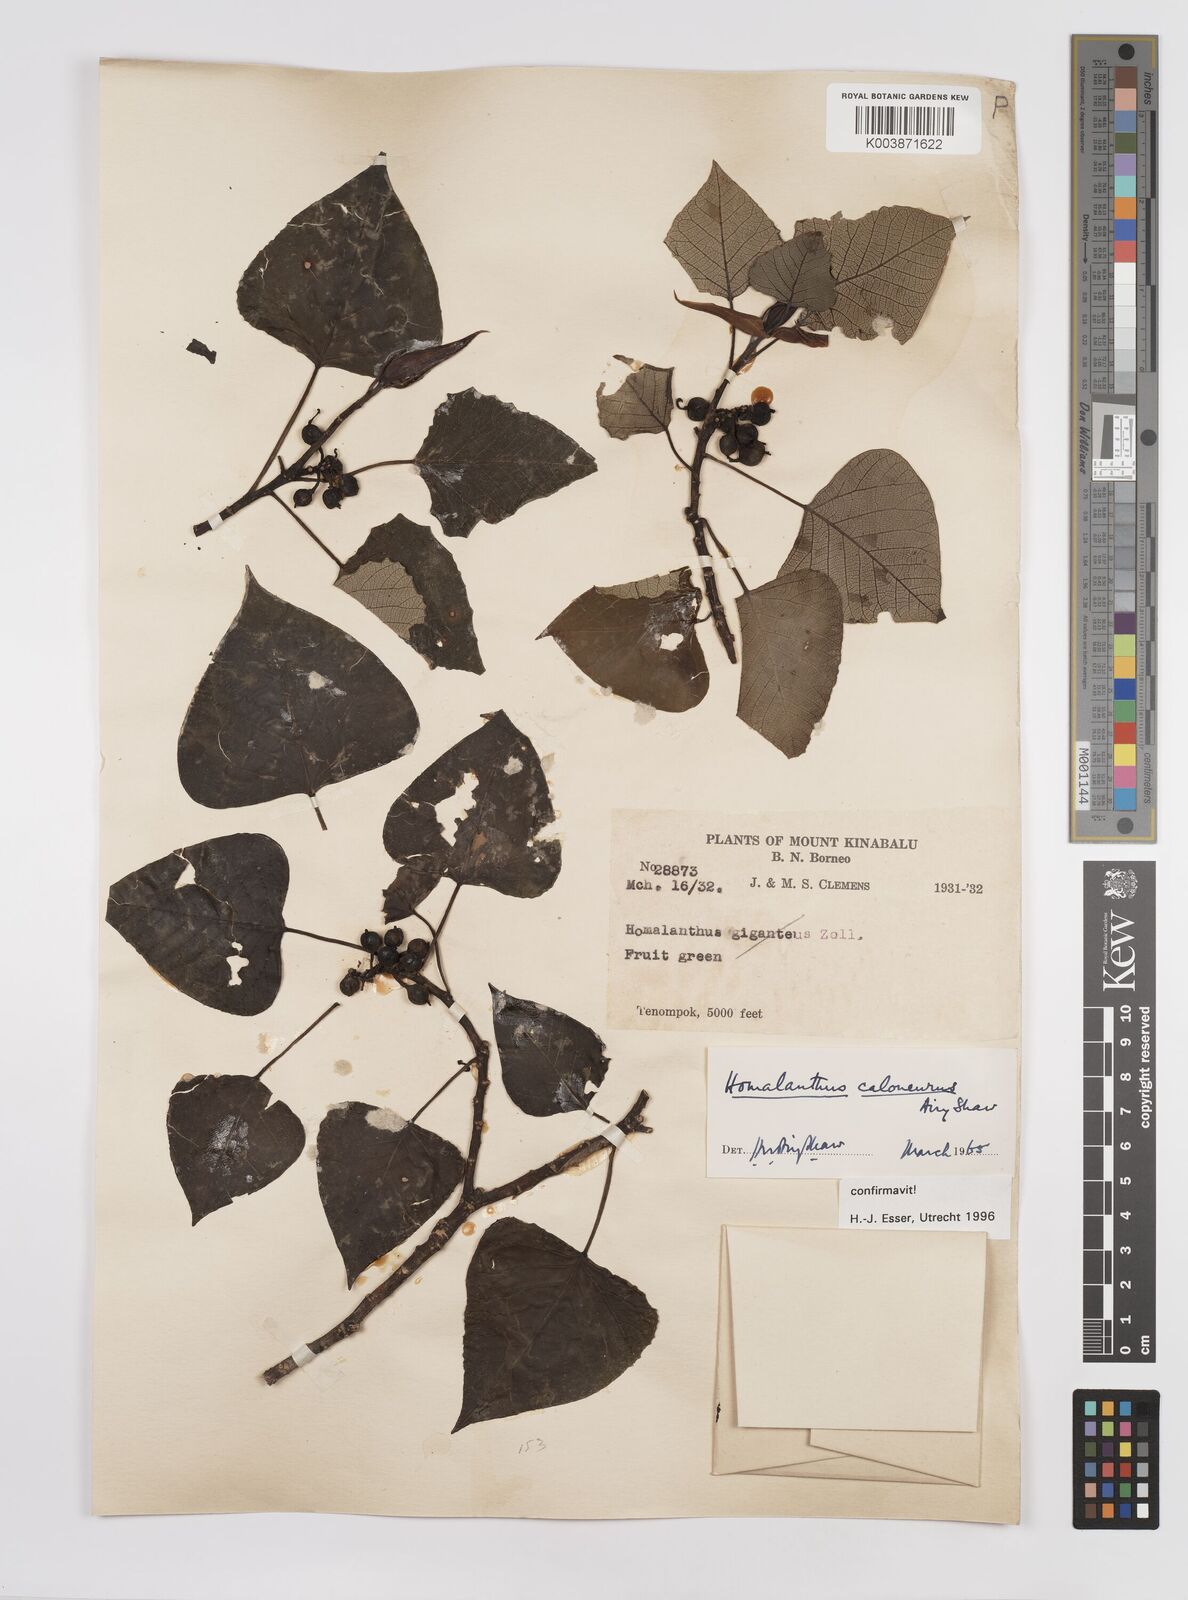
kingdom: Plantae
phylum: Tracheophyta
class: Magnoliopsida
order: Malpighiales
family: Euphorbiaceae
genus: Homalanthus
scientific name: Homalanthus caloneurus
